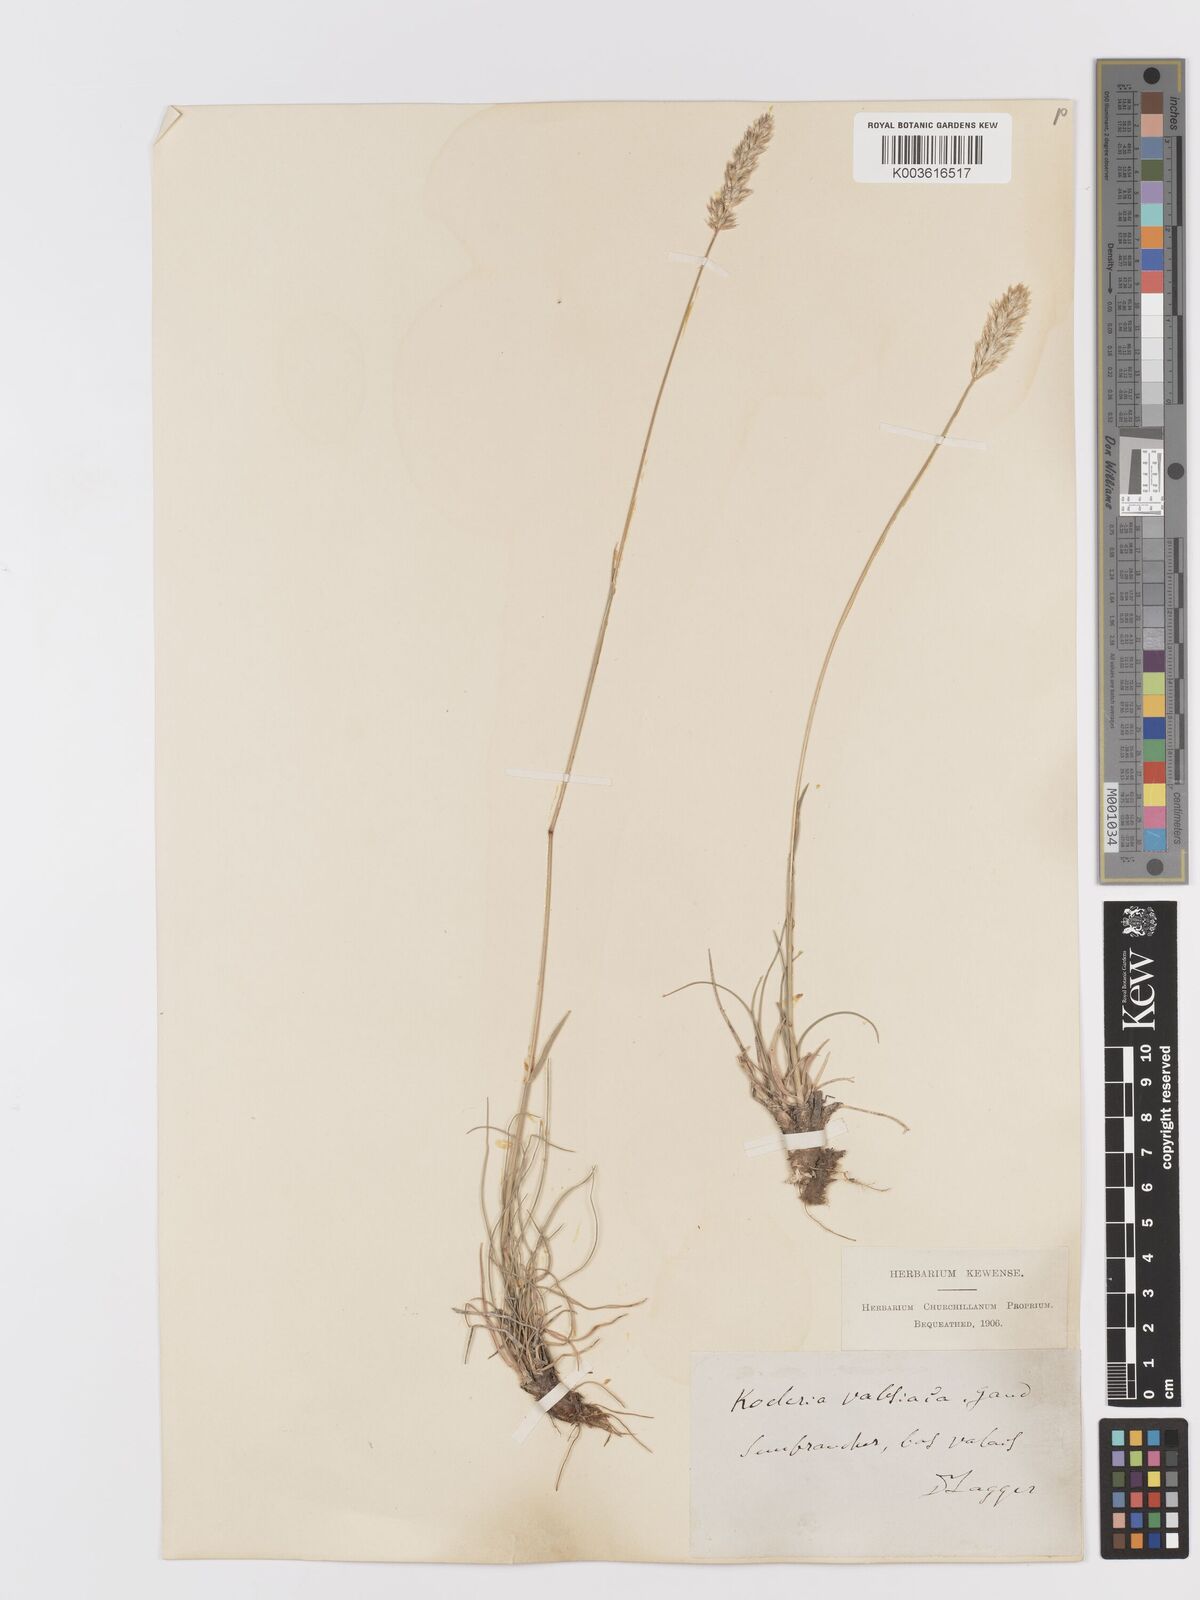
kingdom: Plantae
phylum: Tracheophyta
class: Liliopsida
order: Poales
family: Poaceae
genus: Koeleria
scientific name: Koeleria vallesiana
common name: Somerset hair-grass
